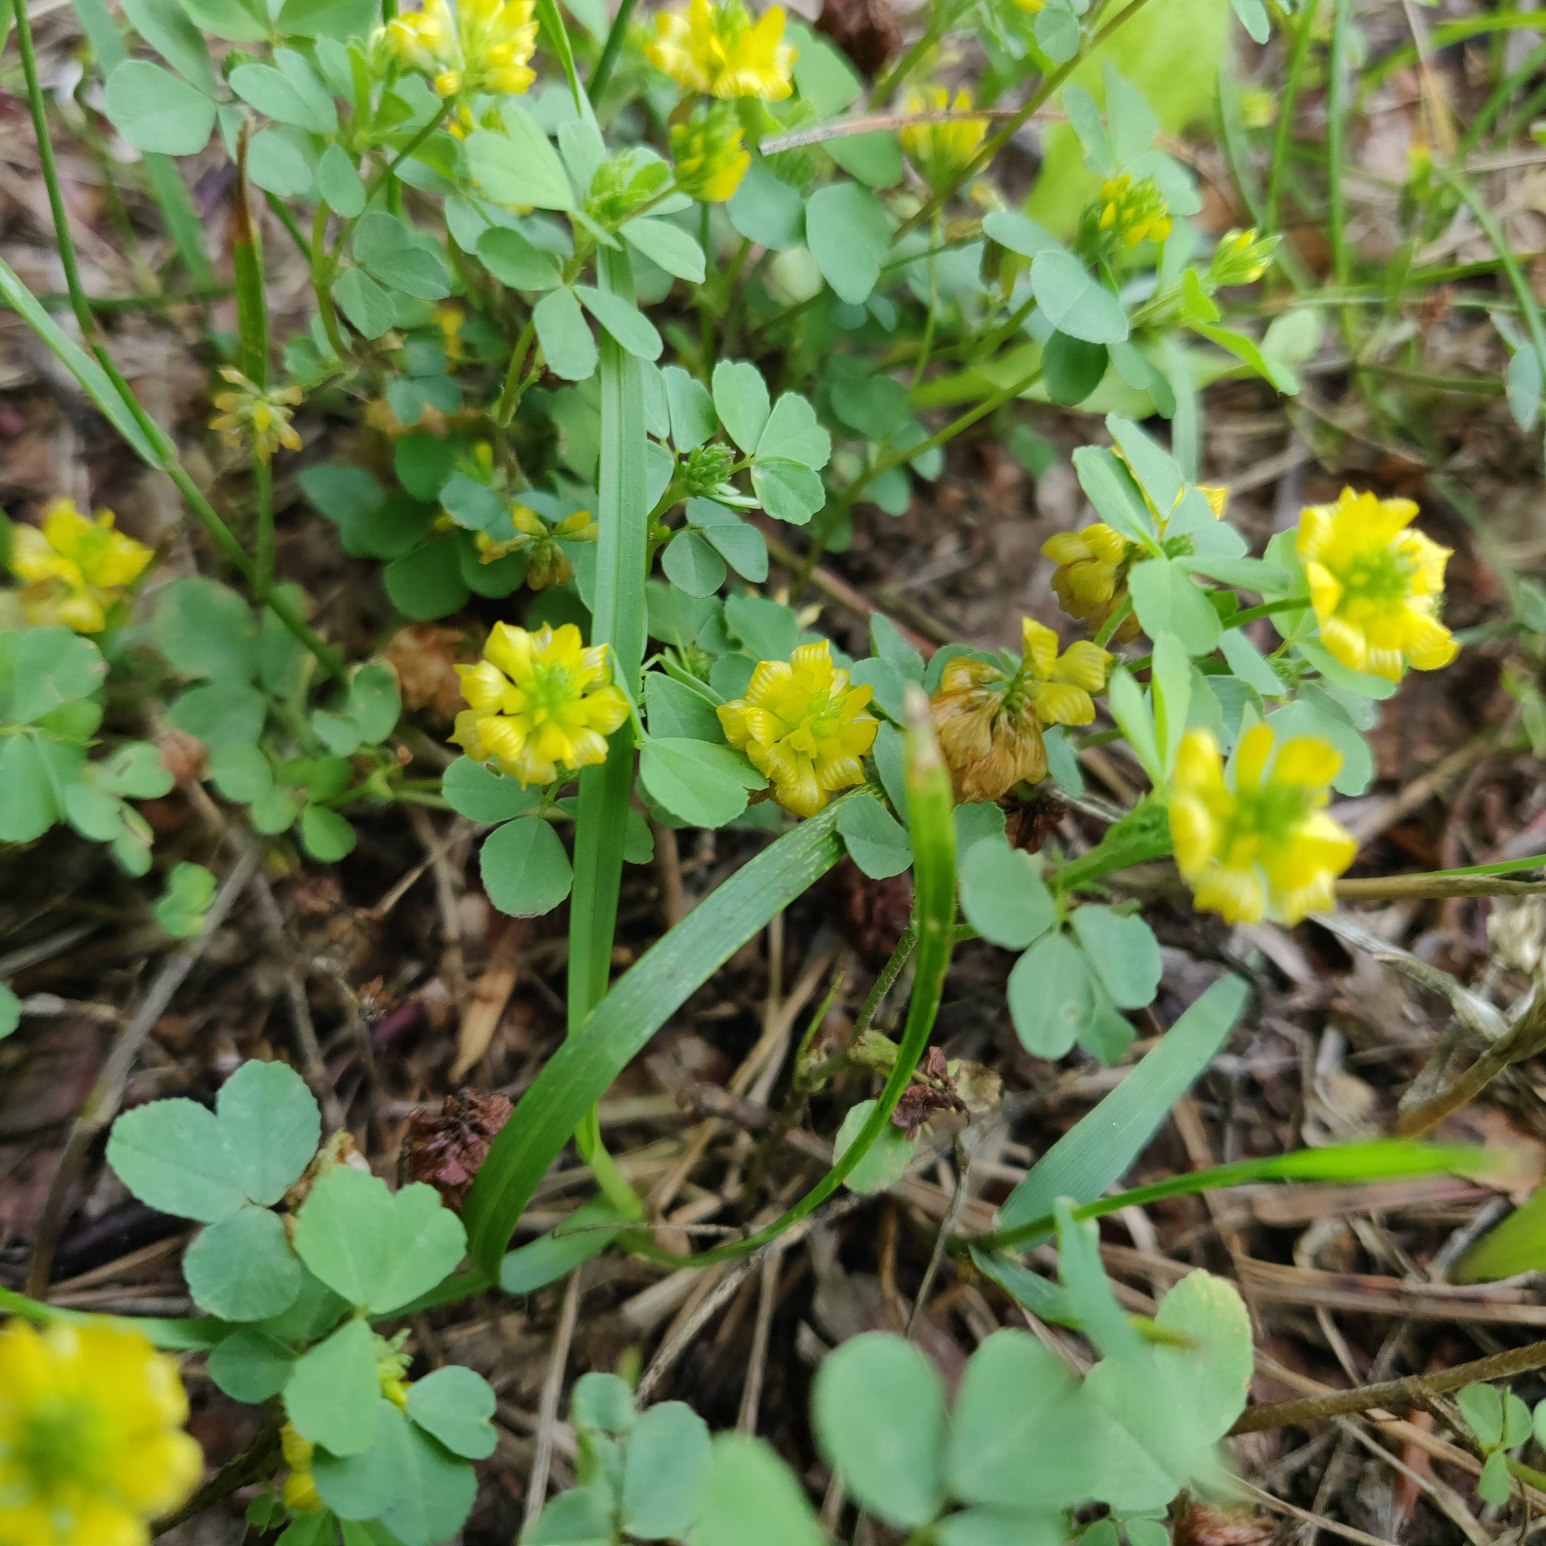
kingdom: Plantae
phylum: Tracheophyta
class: Magnoliopsida
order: Fabales
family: Fabaceae
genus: Trifolium
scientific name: Trifolium campestre
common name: Gul kløver
